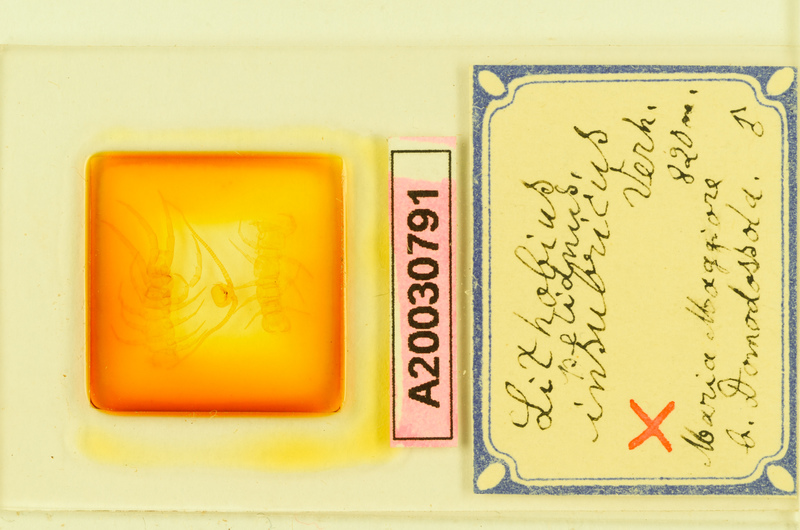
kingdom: Animalia
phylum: Arthropoda
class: Chilopoda
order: Lithobiomorpha
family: Lithobiidae
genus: Lithobius
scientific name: Lithobius pelidnus
